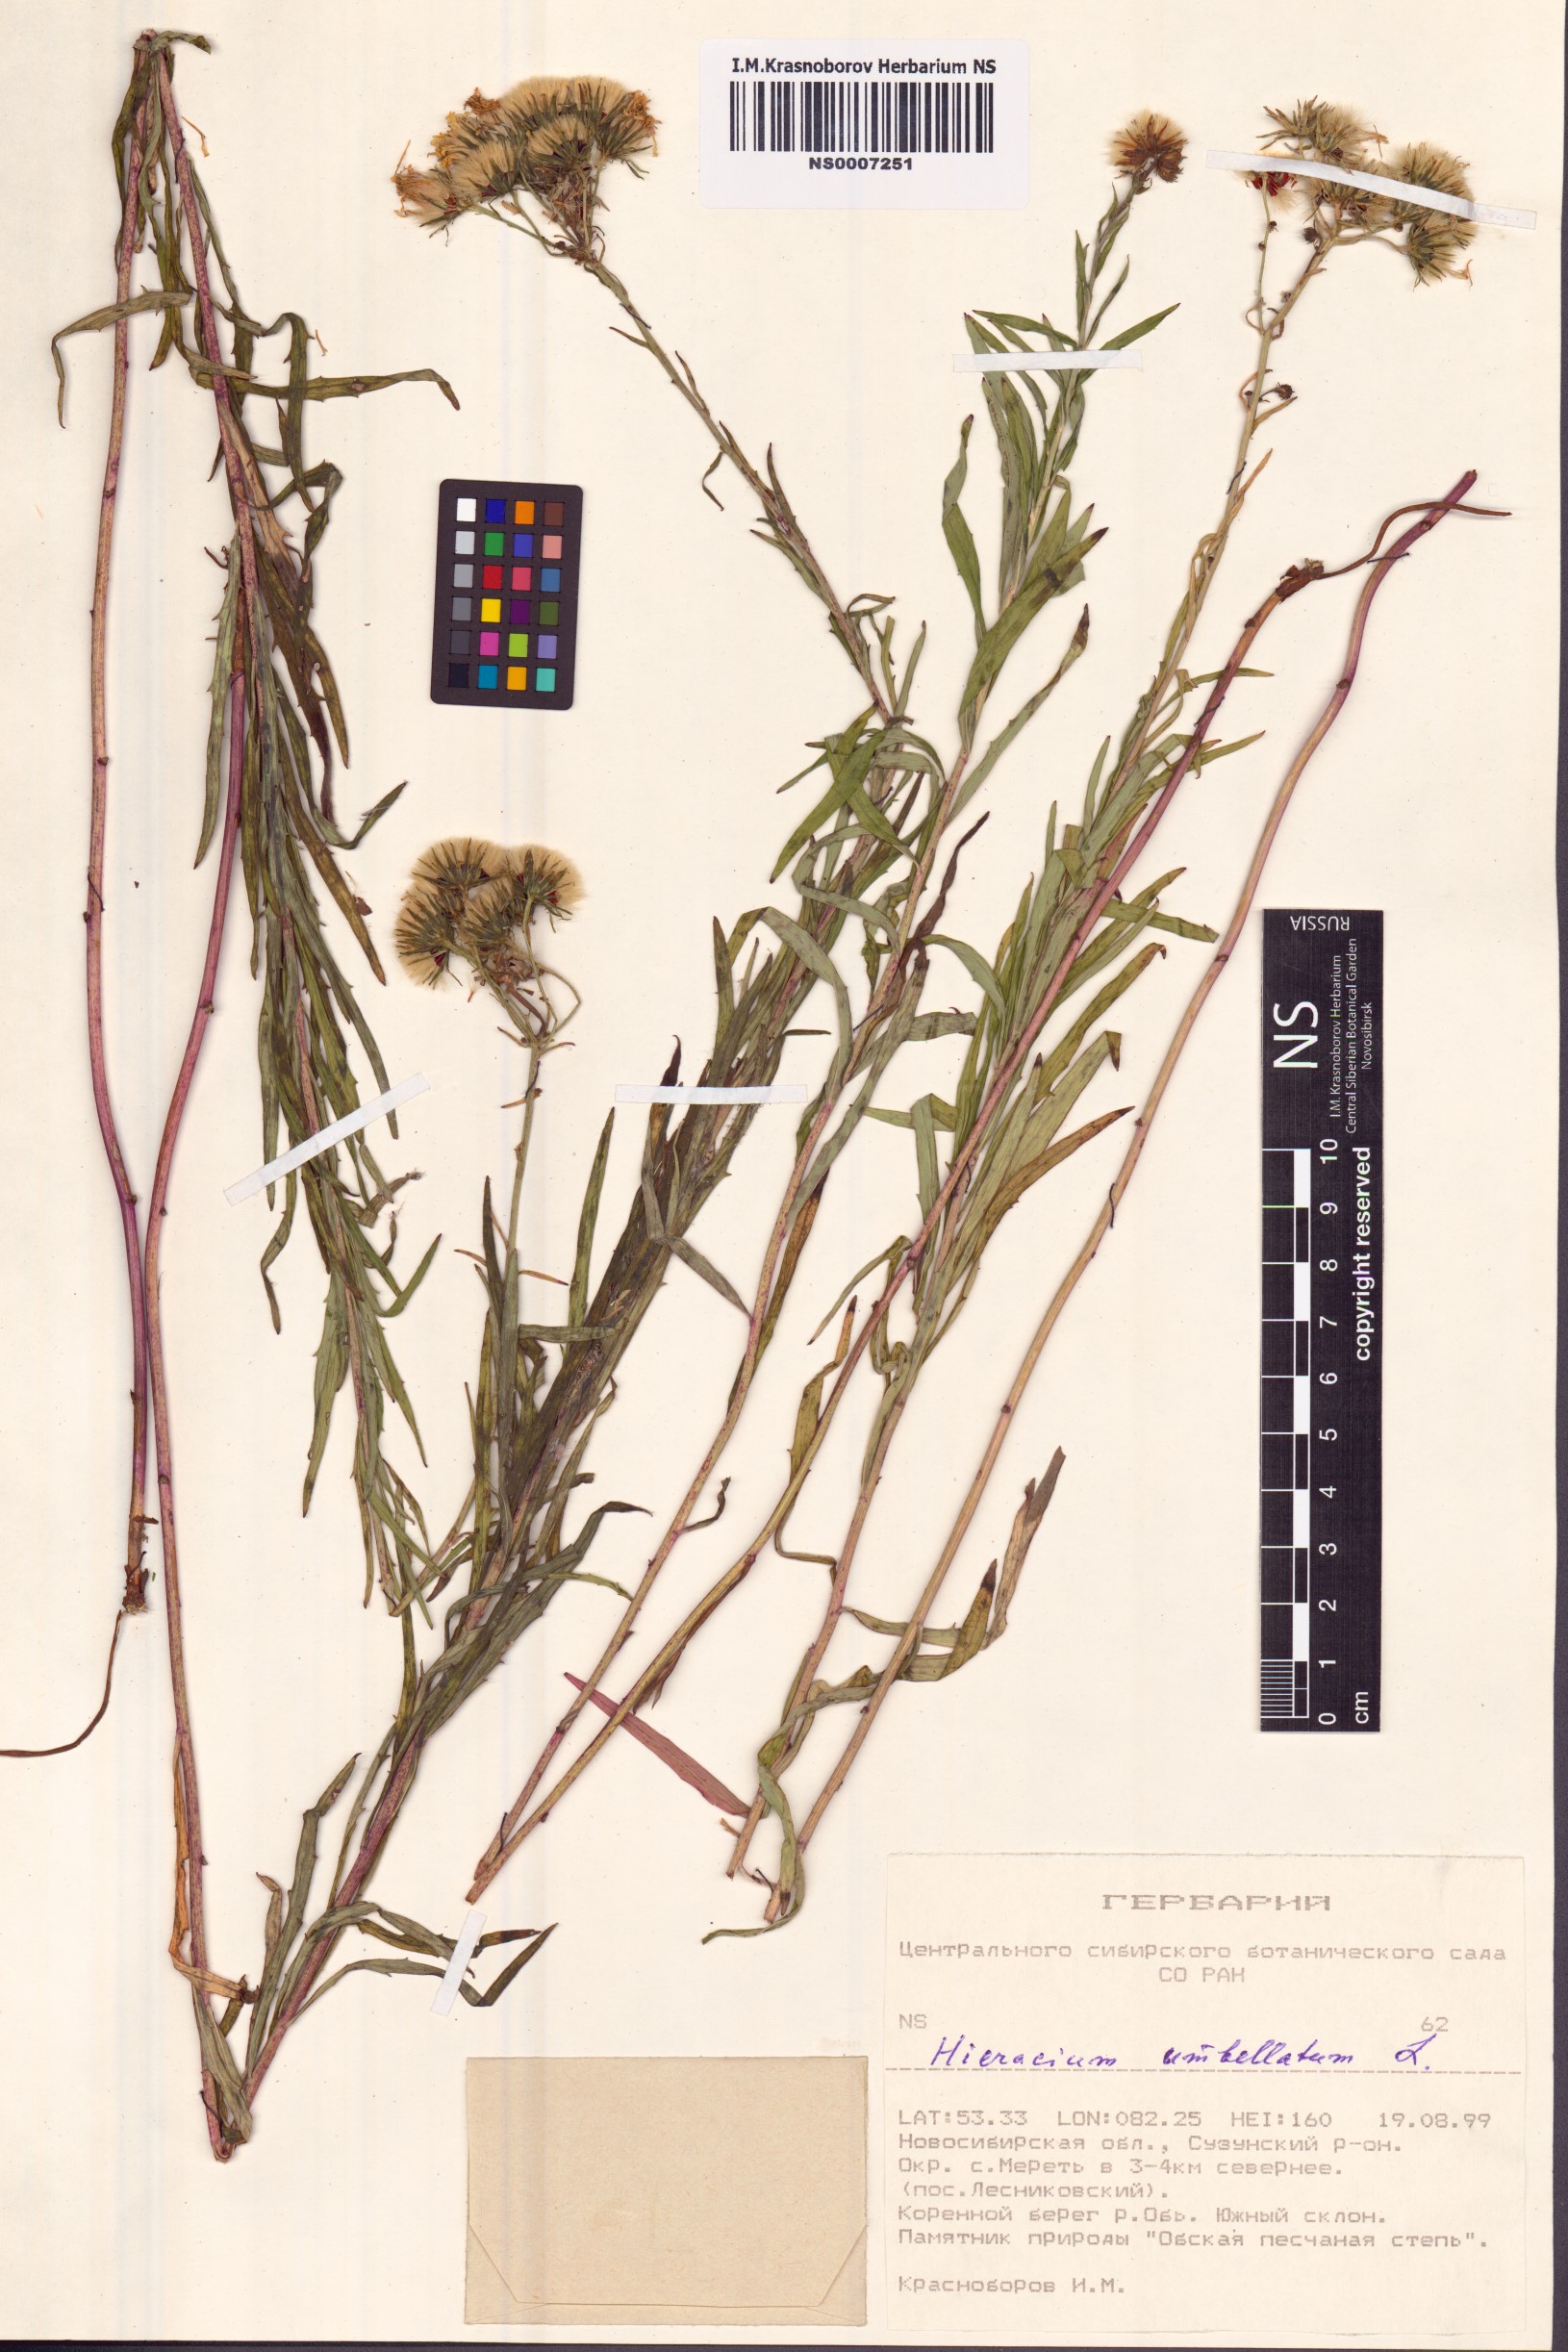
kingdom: Plantae
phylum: Tracheophyta
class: Magnoliopsida
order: Asterales
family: Asteraceae
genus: Hieracium
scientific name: Hieracium umbellatum
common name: Northern hawkweed
